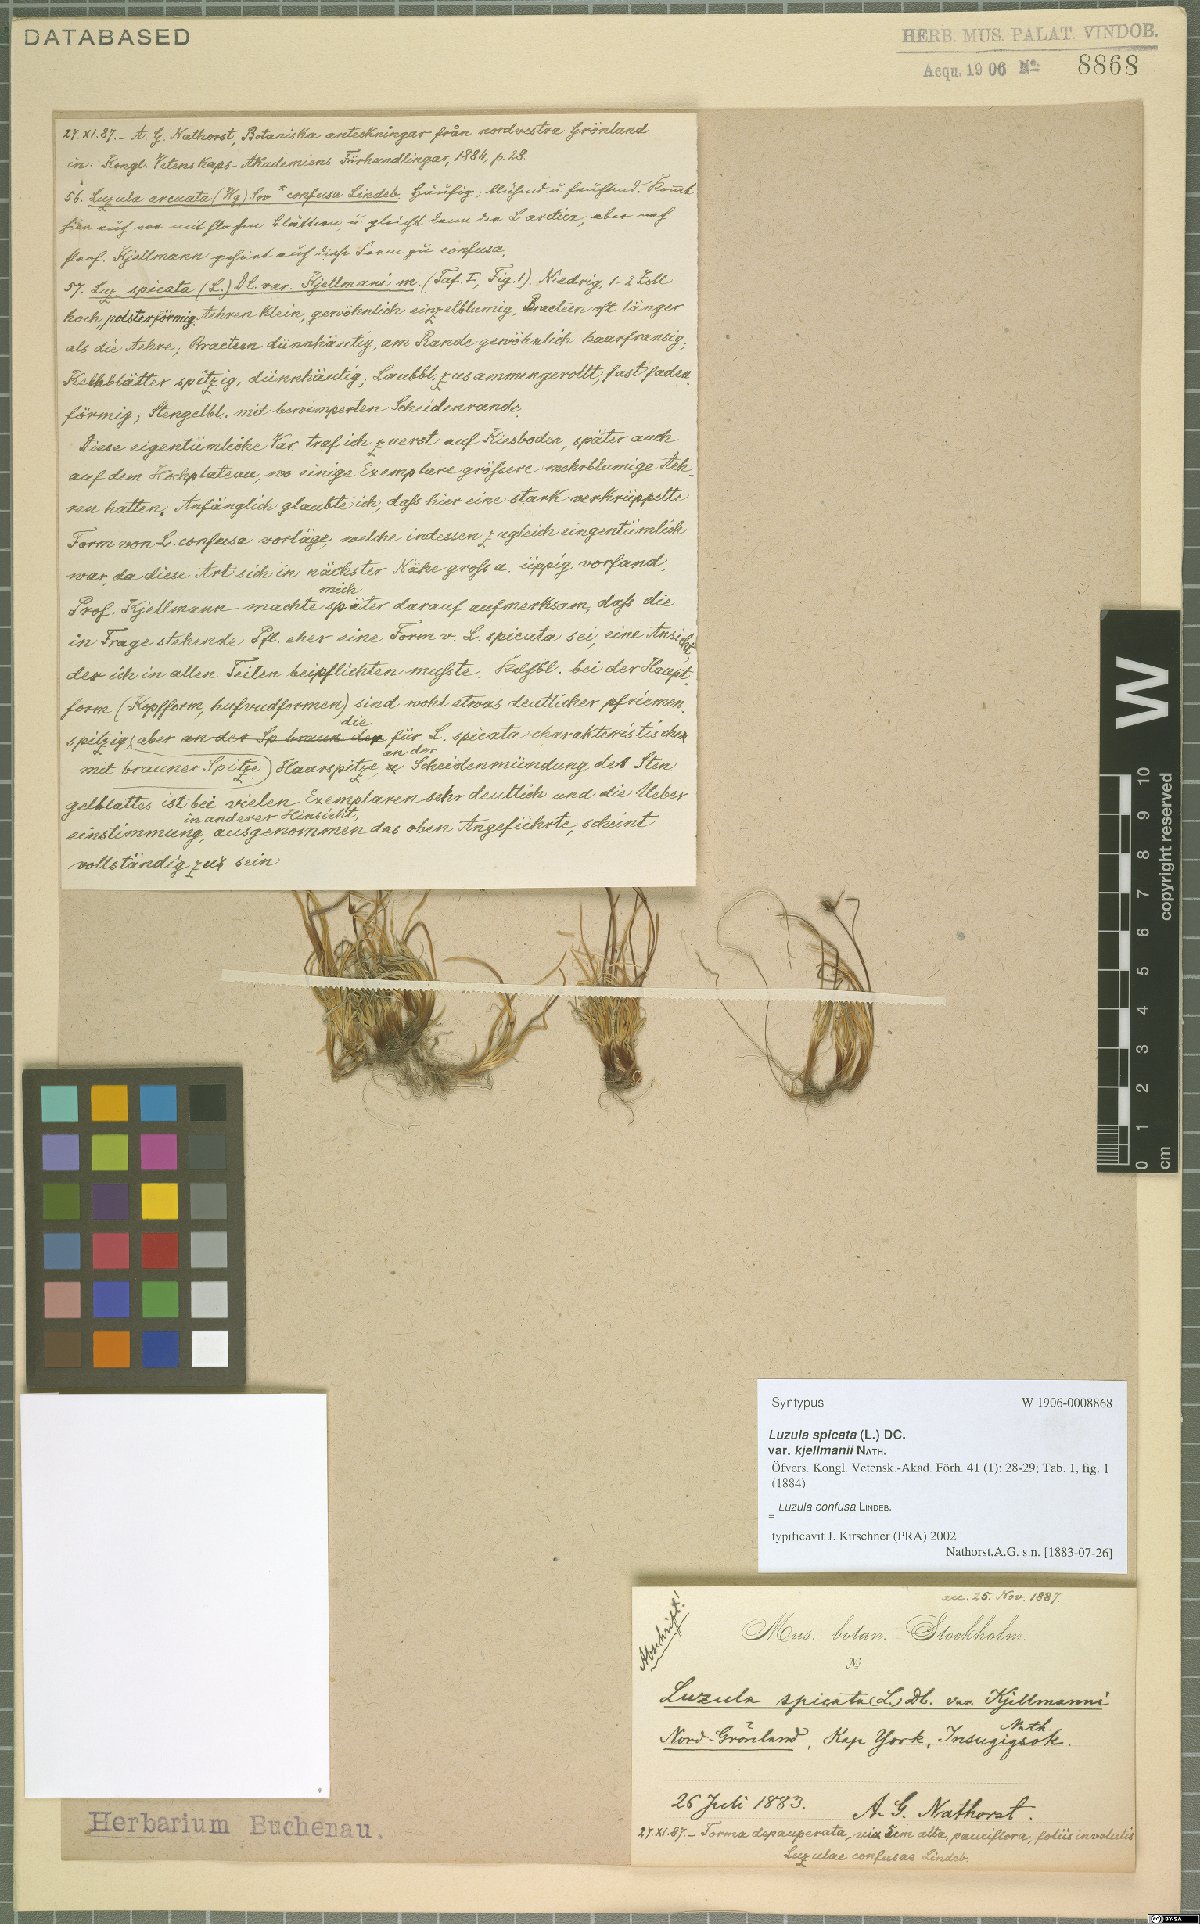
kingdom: Plantae
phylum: Tracheophyta
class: Liliopsida
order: Poales
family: Juncaceae
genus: Luzula
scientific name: Luzula confusa
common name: Northern wood rush
